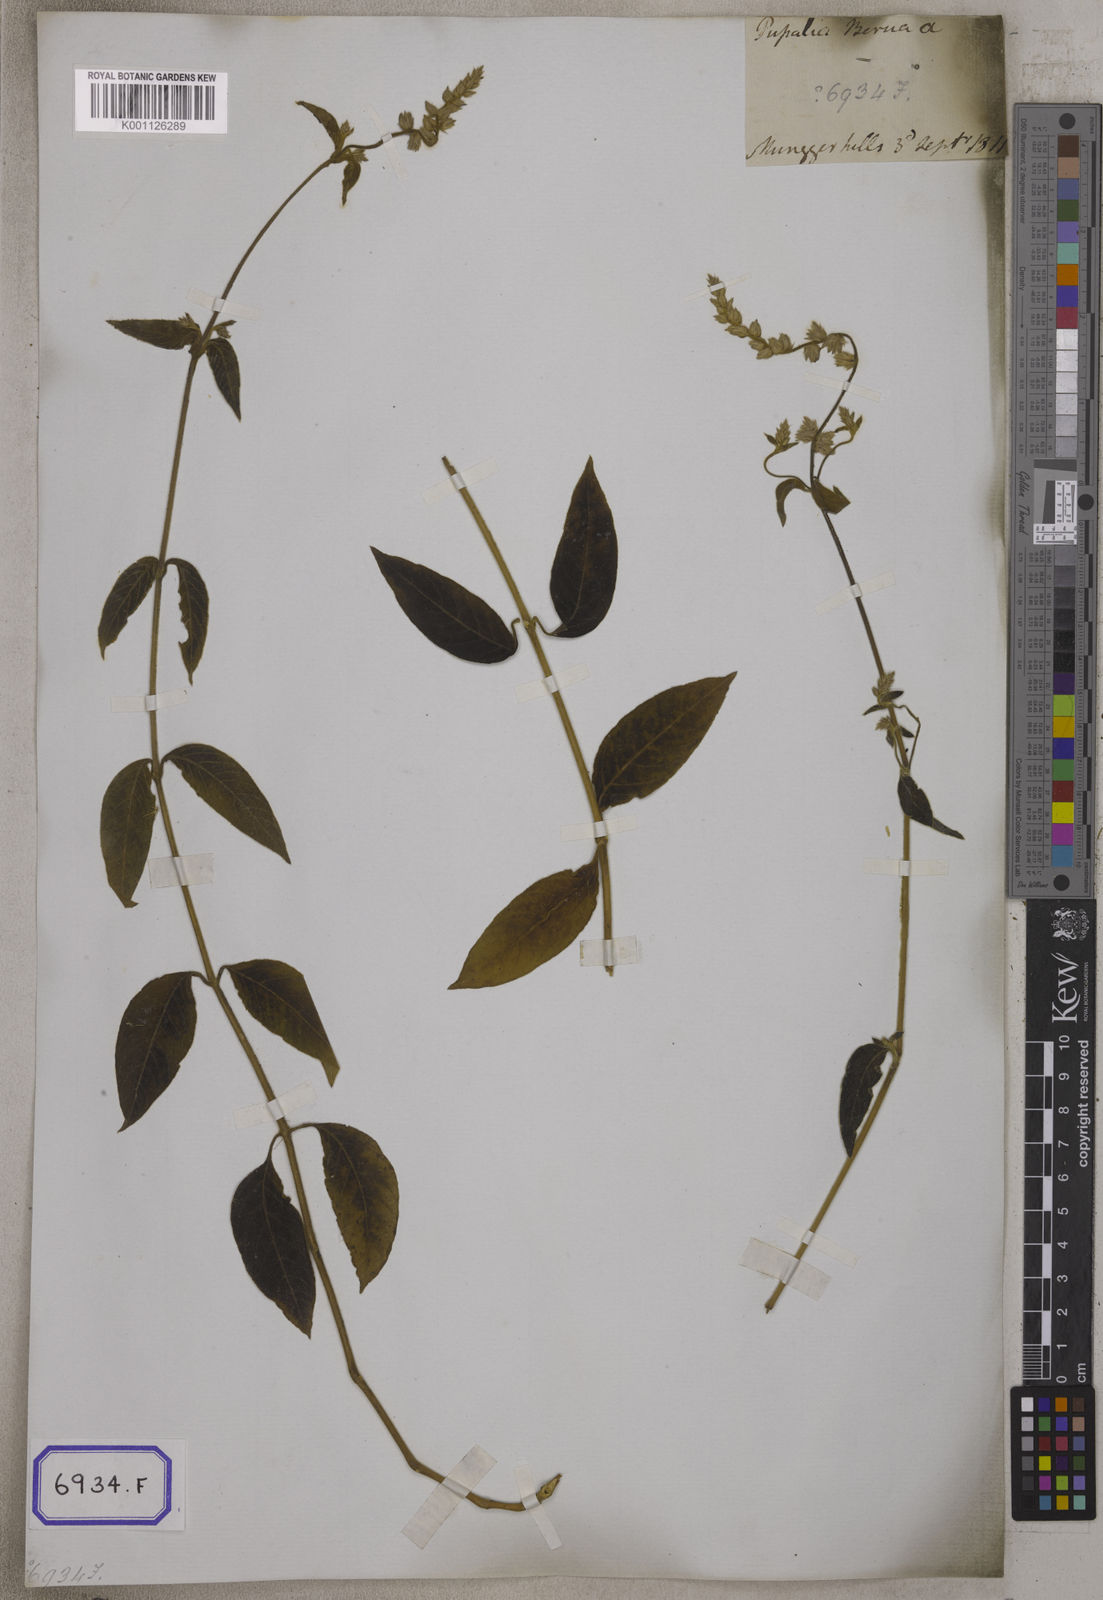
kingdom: Plantae
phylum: Tracheophyta
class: Magnoliopsida
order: Caryophyllales
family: Amaranthaceae
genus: Pupalia
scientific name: Pupalia lappacea
